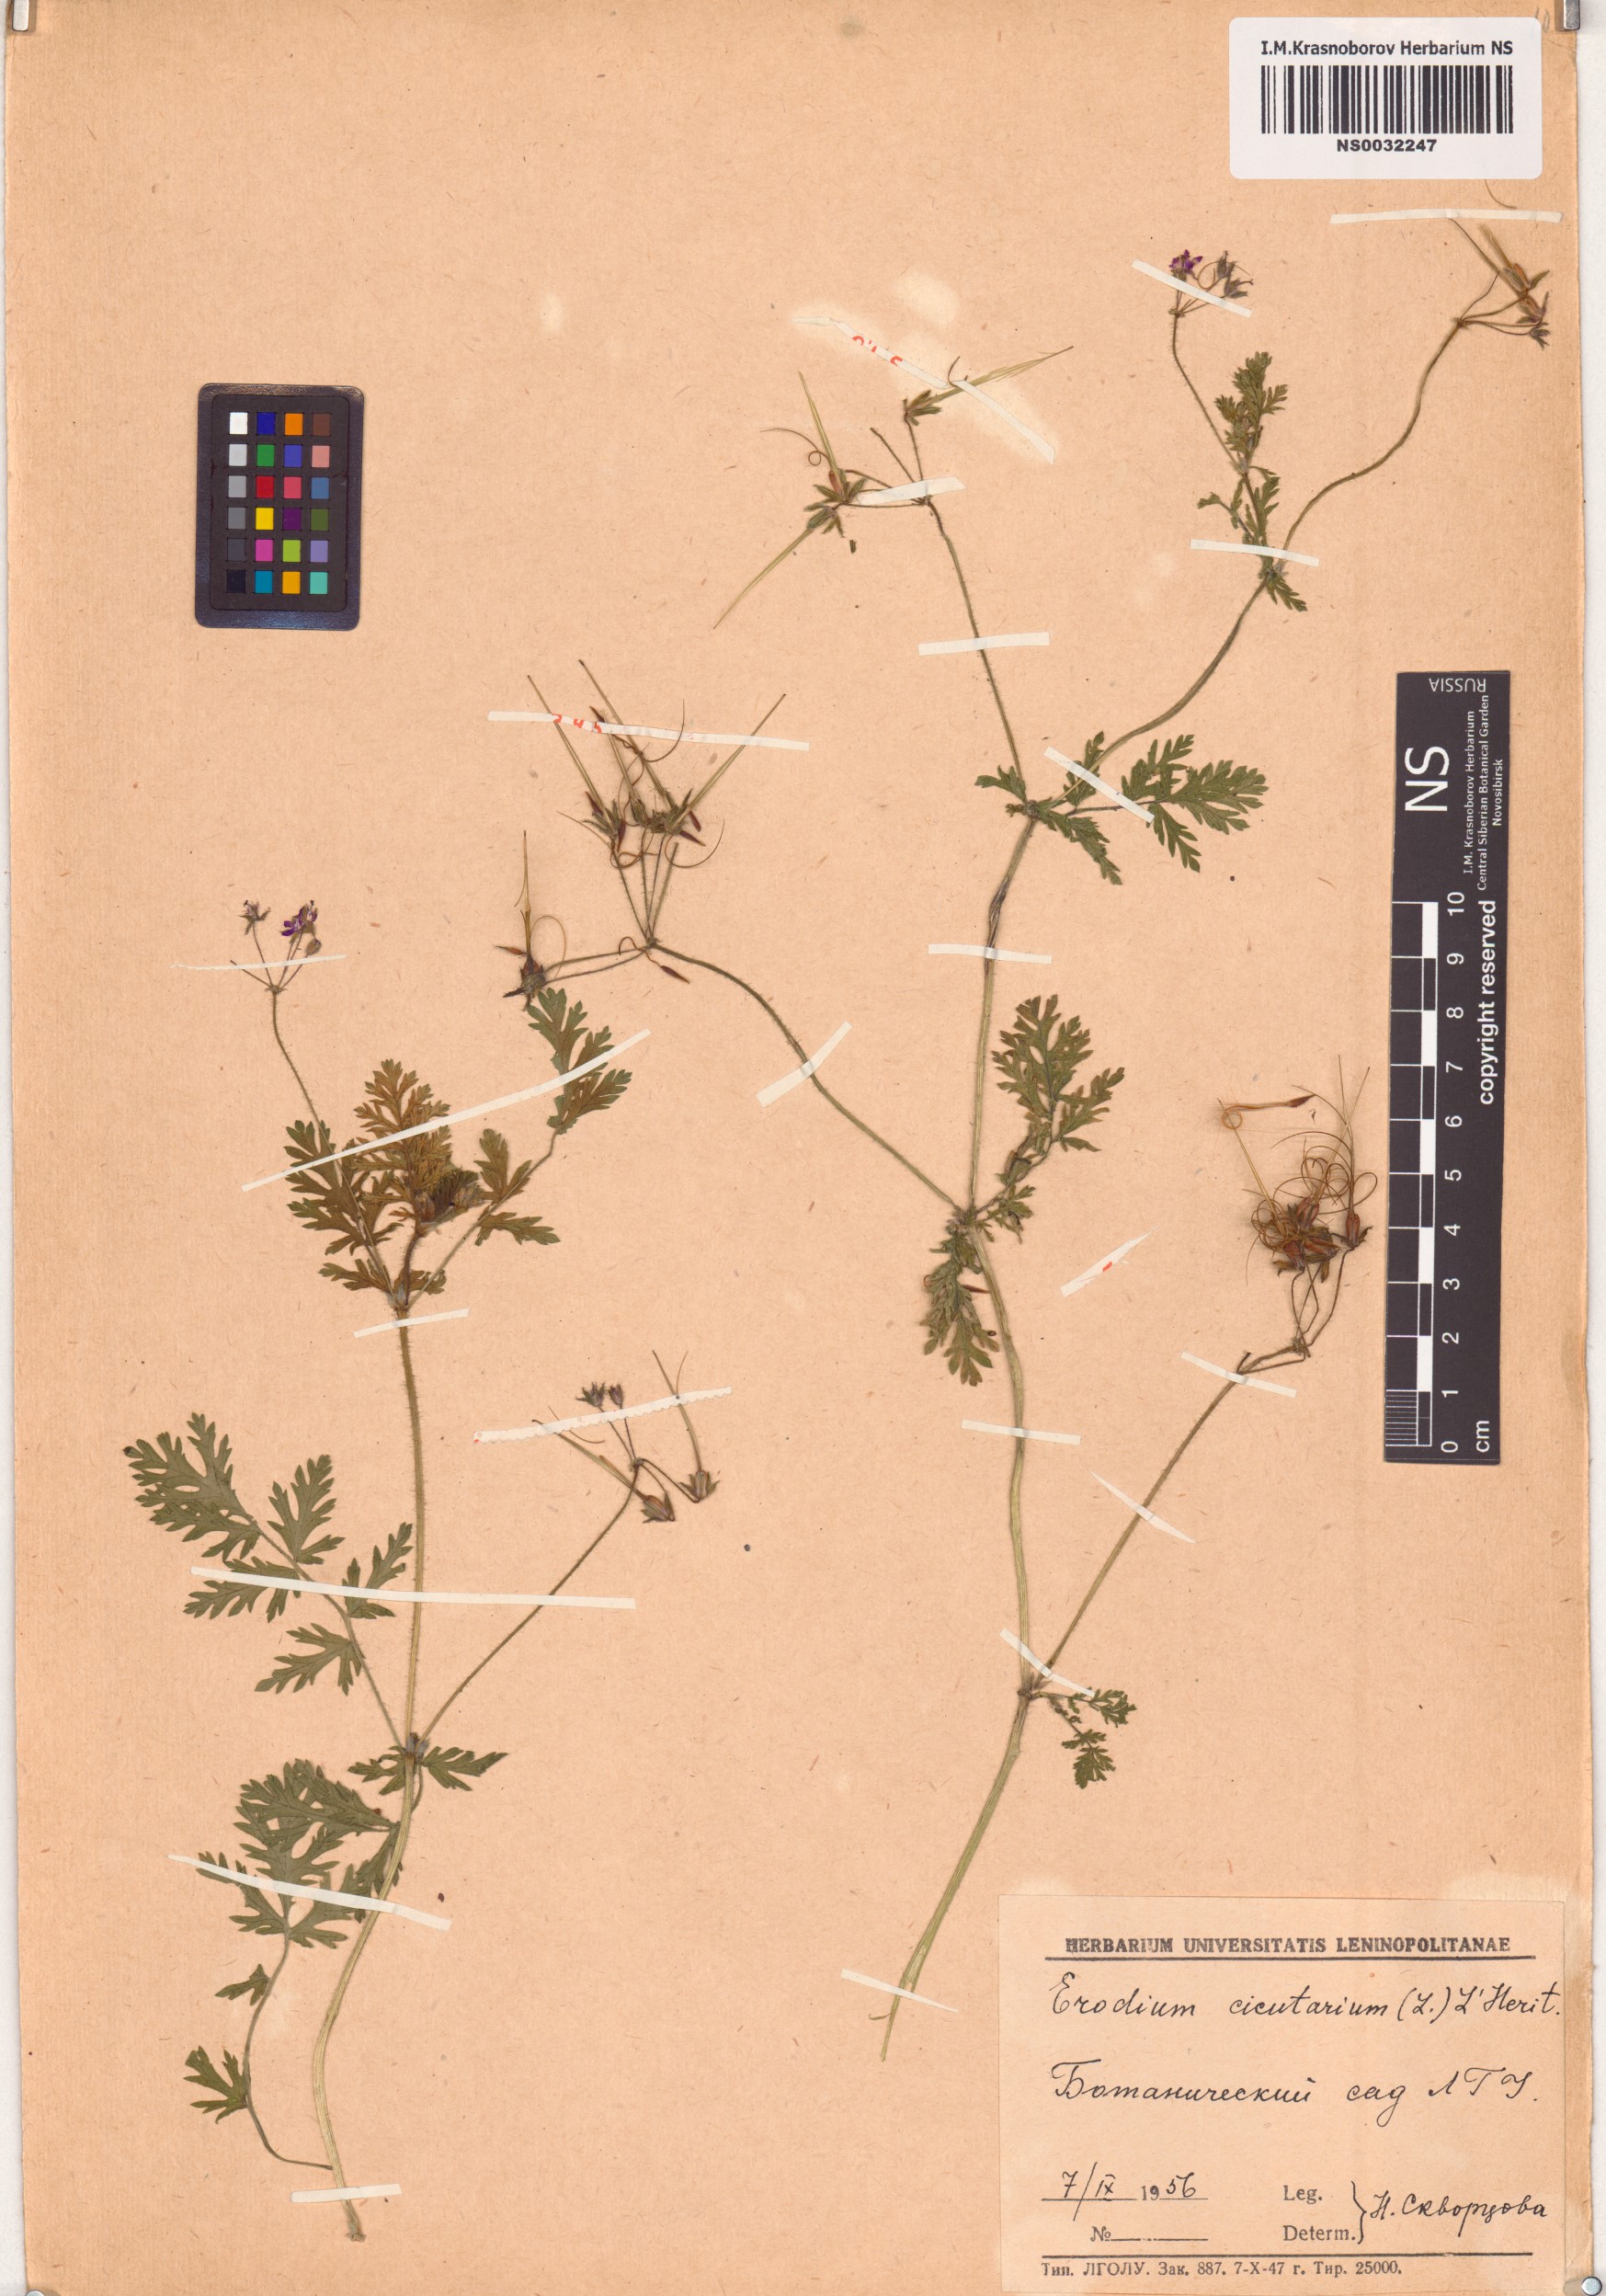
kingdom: Plantae
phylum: Tracheophyta
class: Magnoliopsida
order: Geraniales
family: Geraniaceae
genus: Erodium
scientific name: Erodium cicutarium
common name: Common stork's-bill
